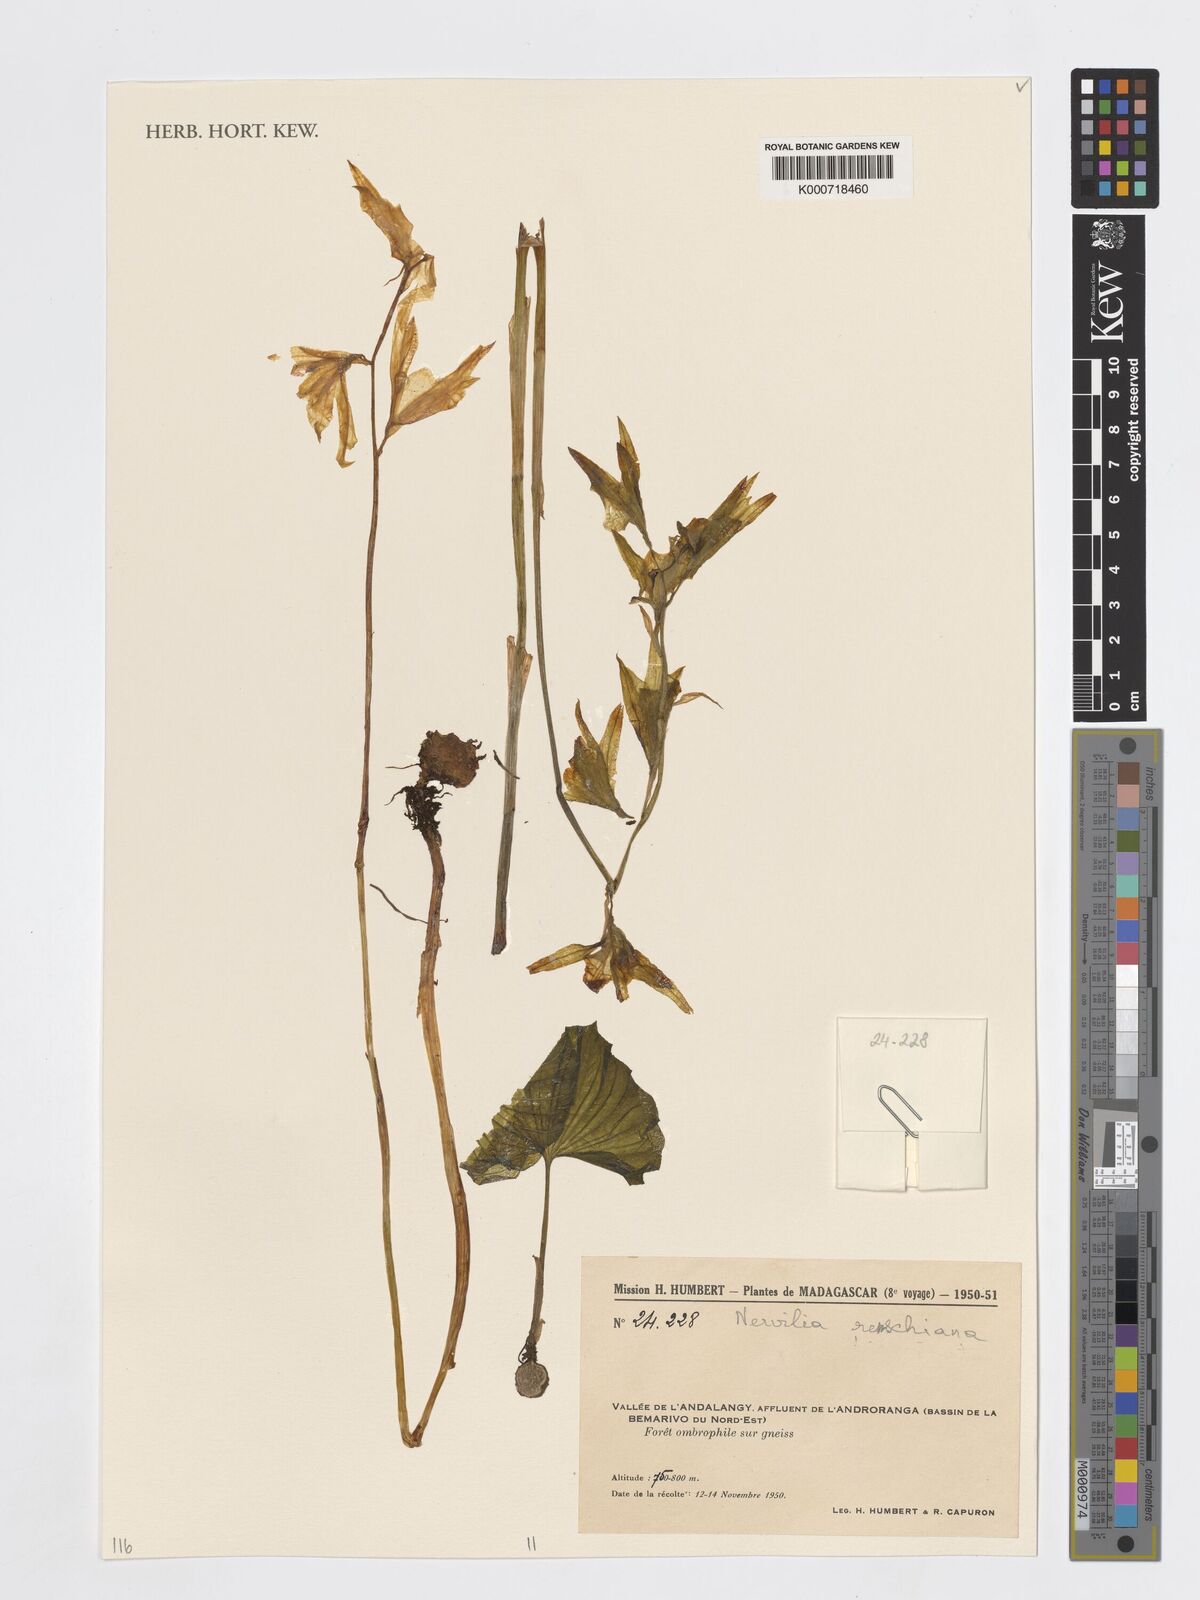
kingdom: Plantae
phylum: Tracheophyta
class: Liliopsida
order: Asparagales
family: Orchidaceae
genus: Nervilia
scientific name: Nervilia renschiana
